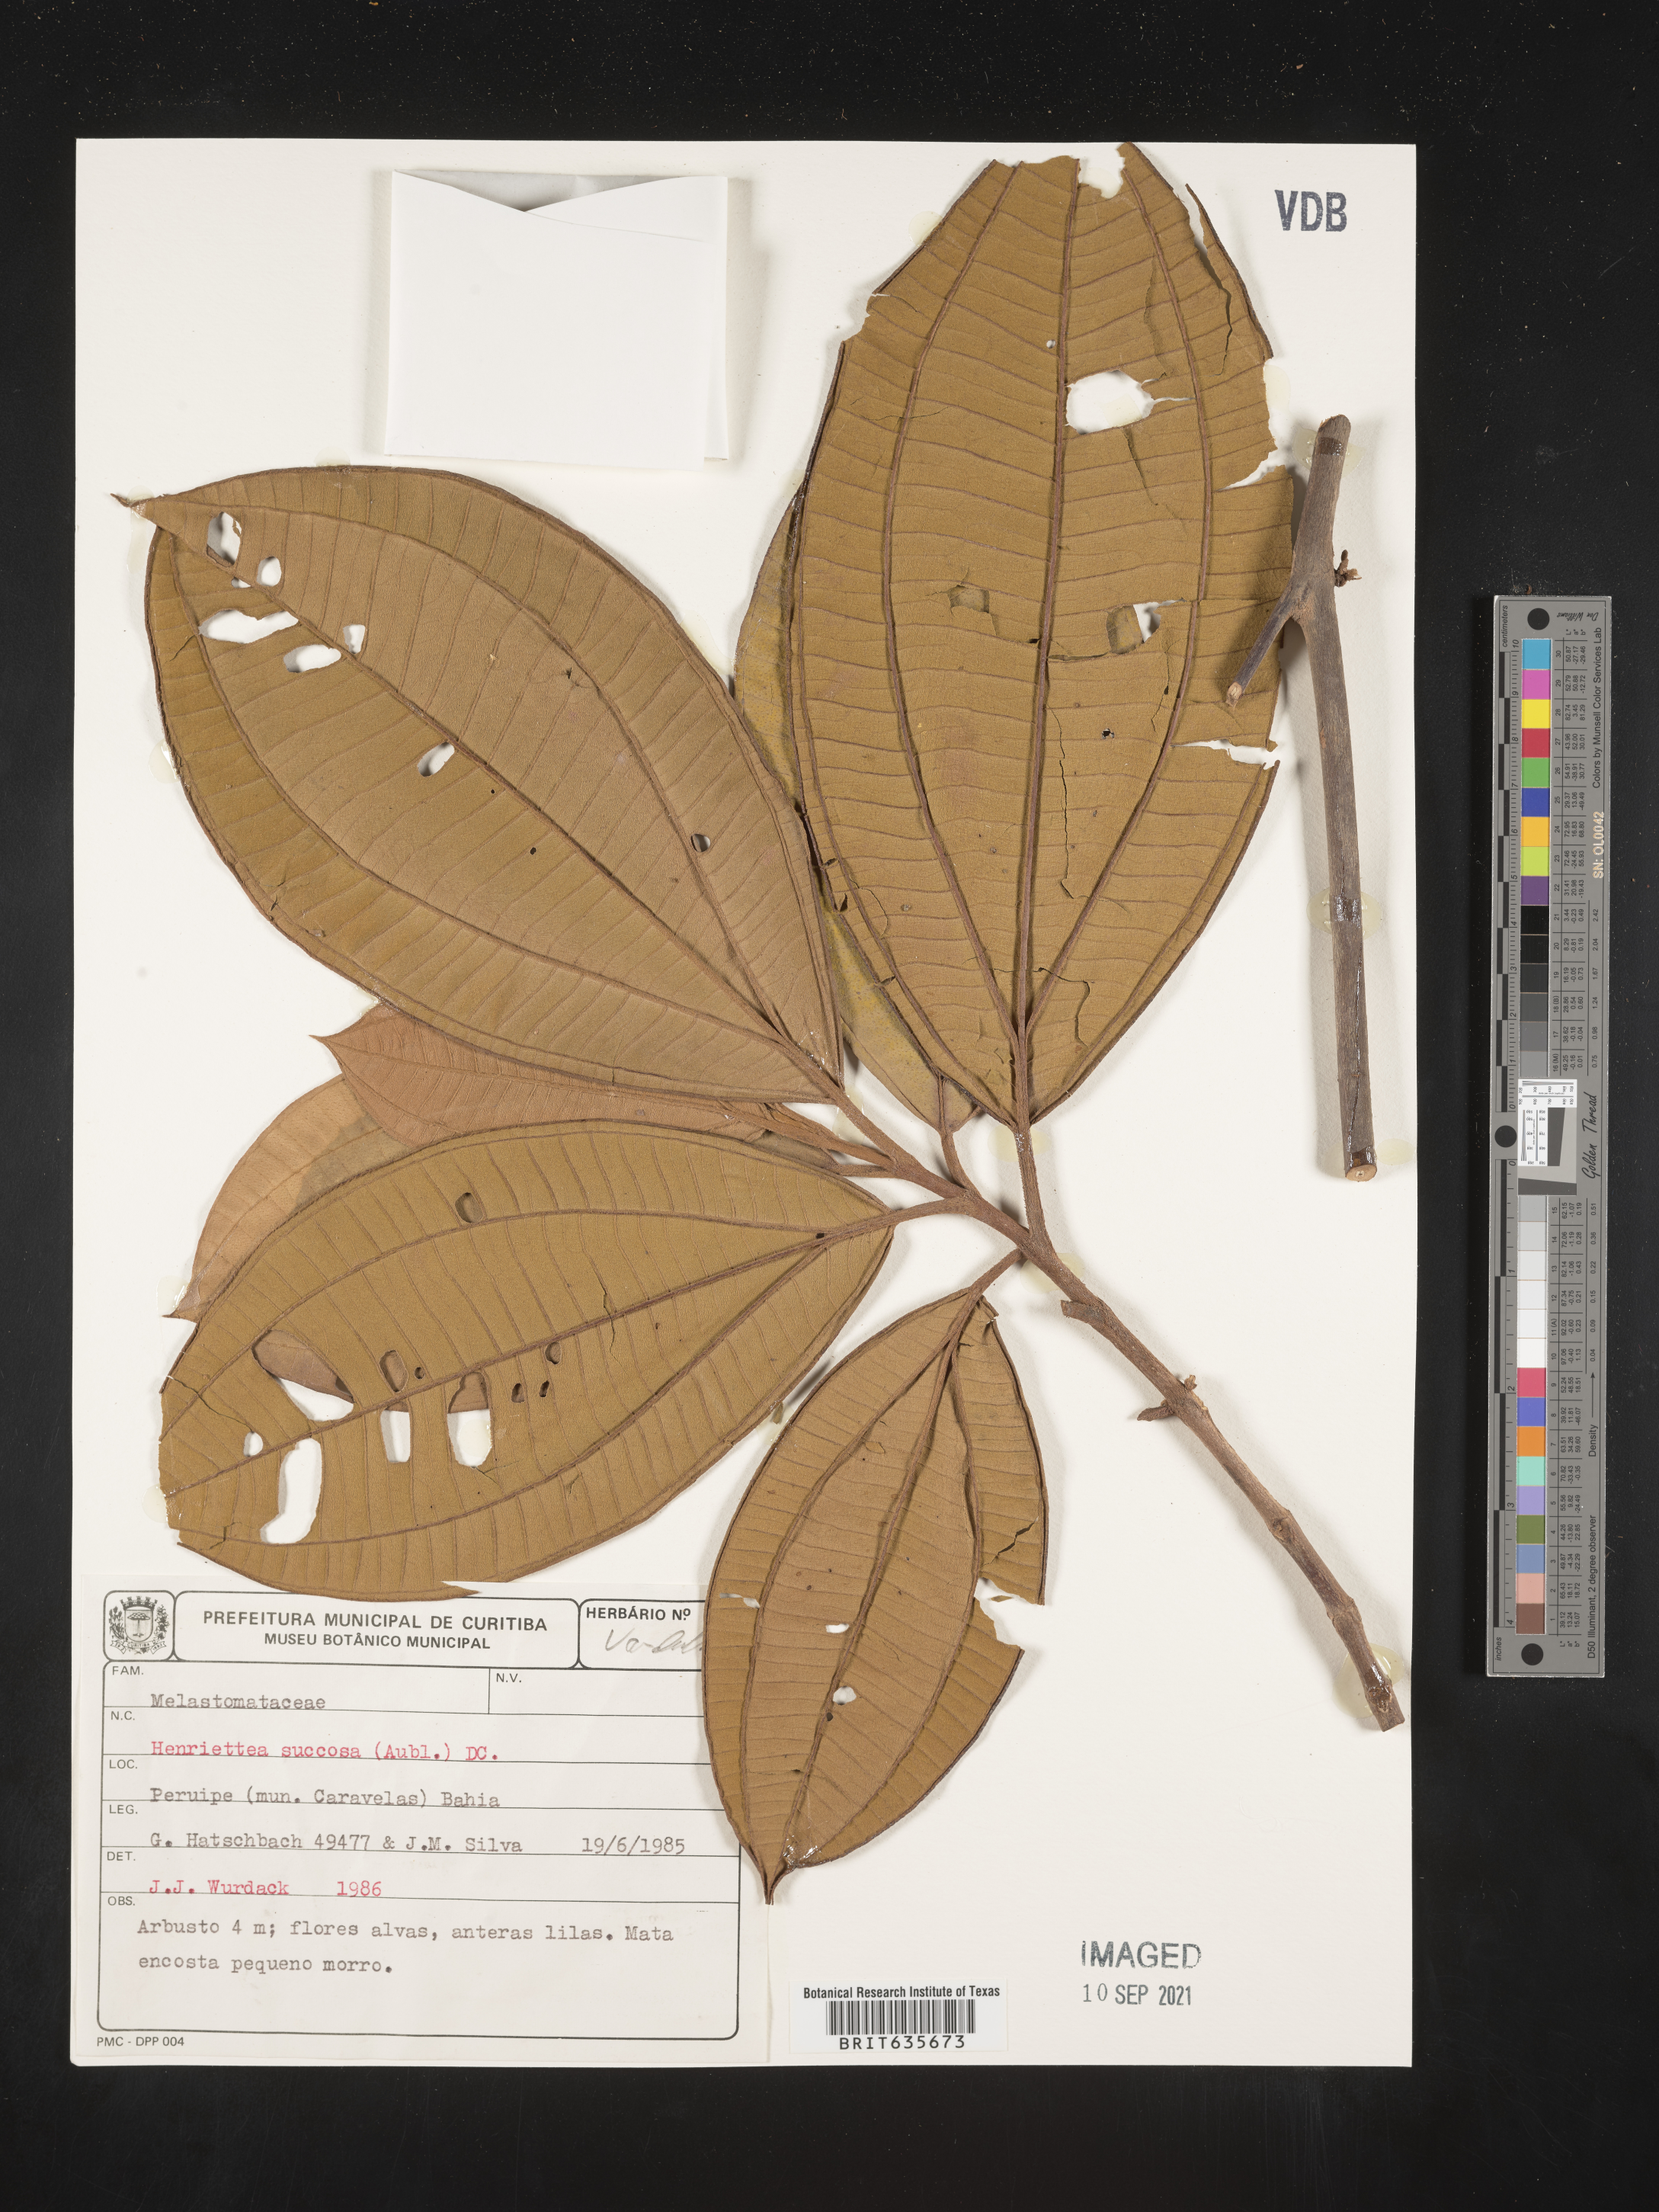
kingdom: Plantae
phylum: Tracheophyta
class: Magnoliopsida
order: Myrtales
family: Melastomataceae
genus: Henriettea
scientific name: Henriettea
